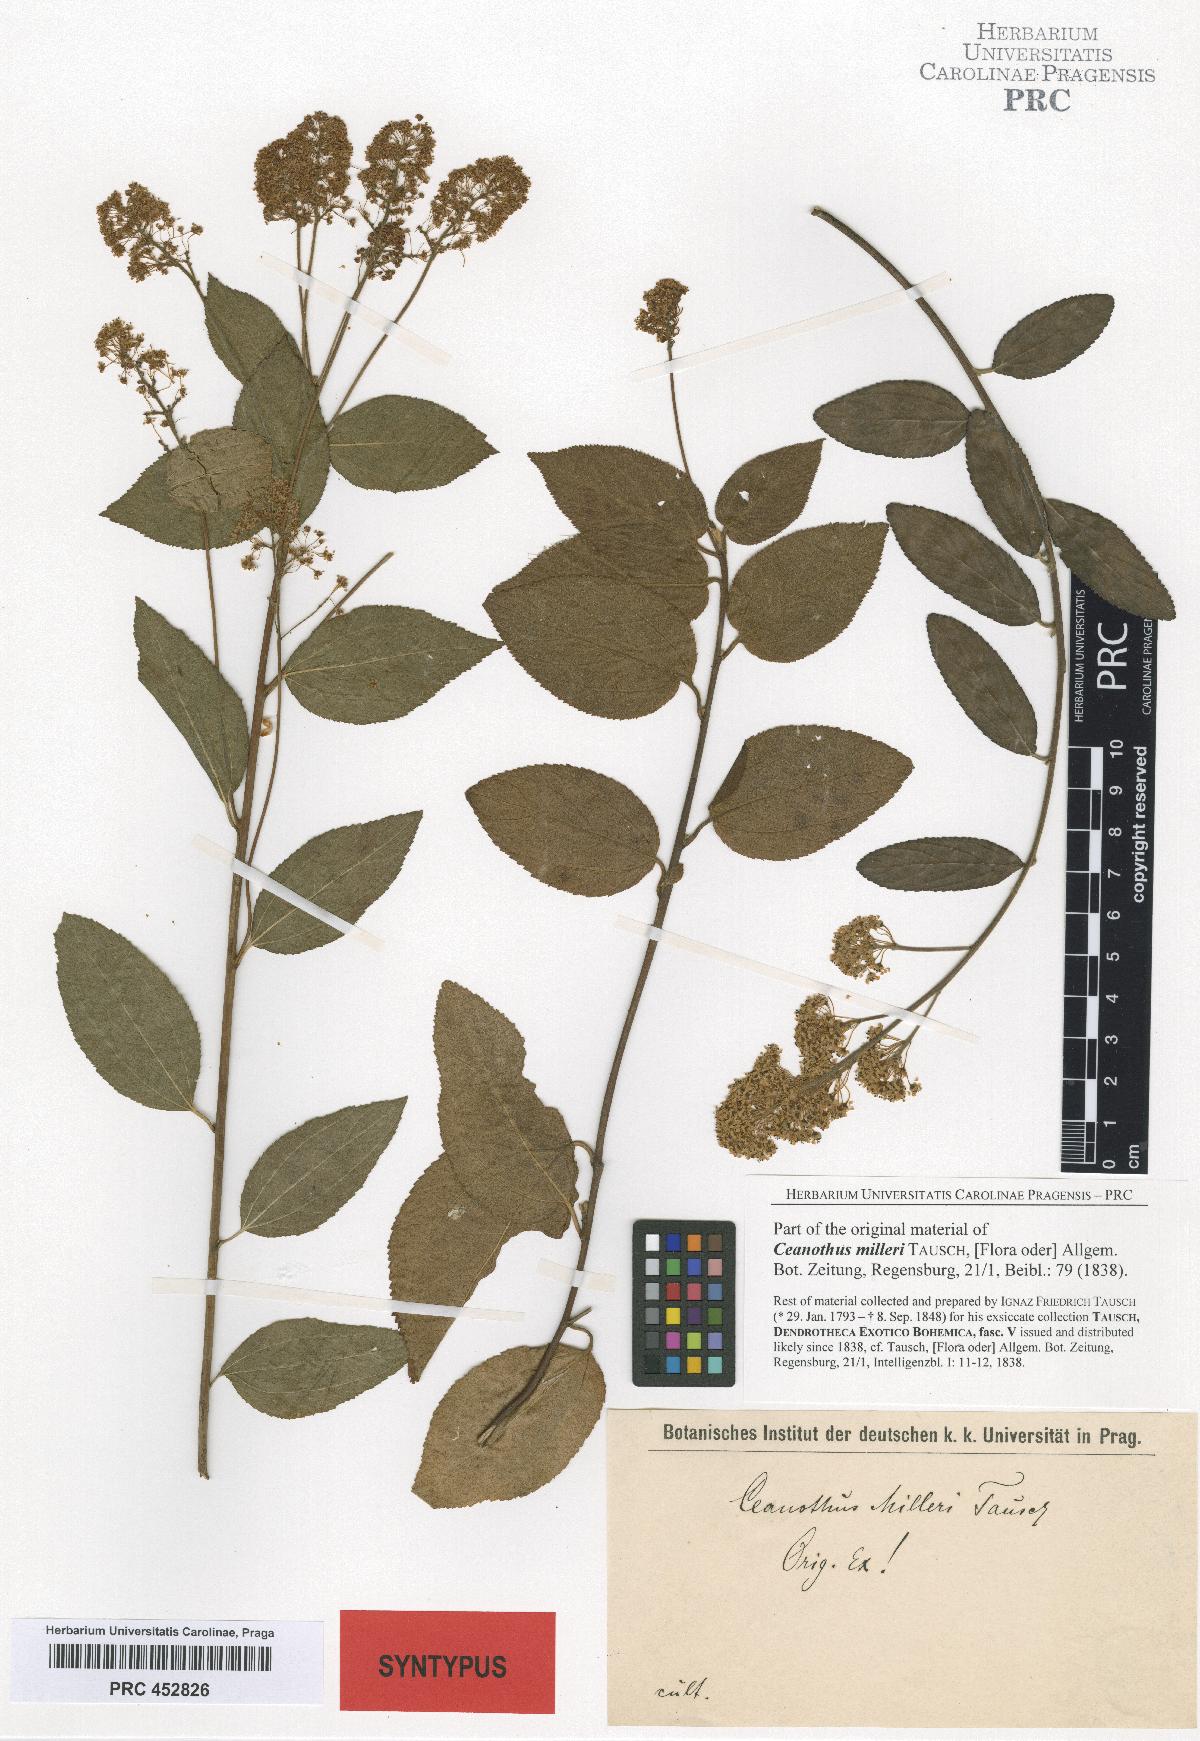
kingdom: Plantae
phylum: Tracheophyta
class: Magnoliopsida
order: Rosales
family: Rhamnaceae
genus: Ceanothus
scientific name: Ceanothus americanus
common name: Redroot
